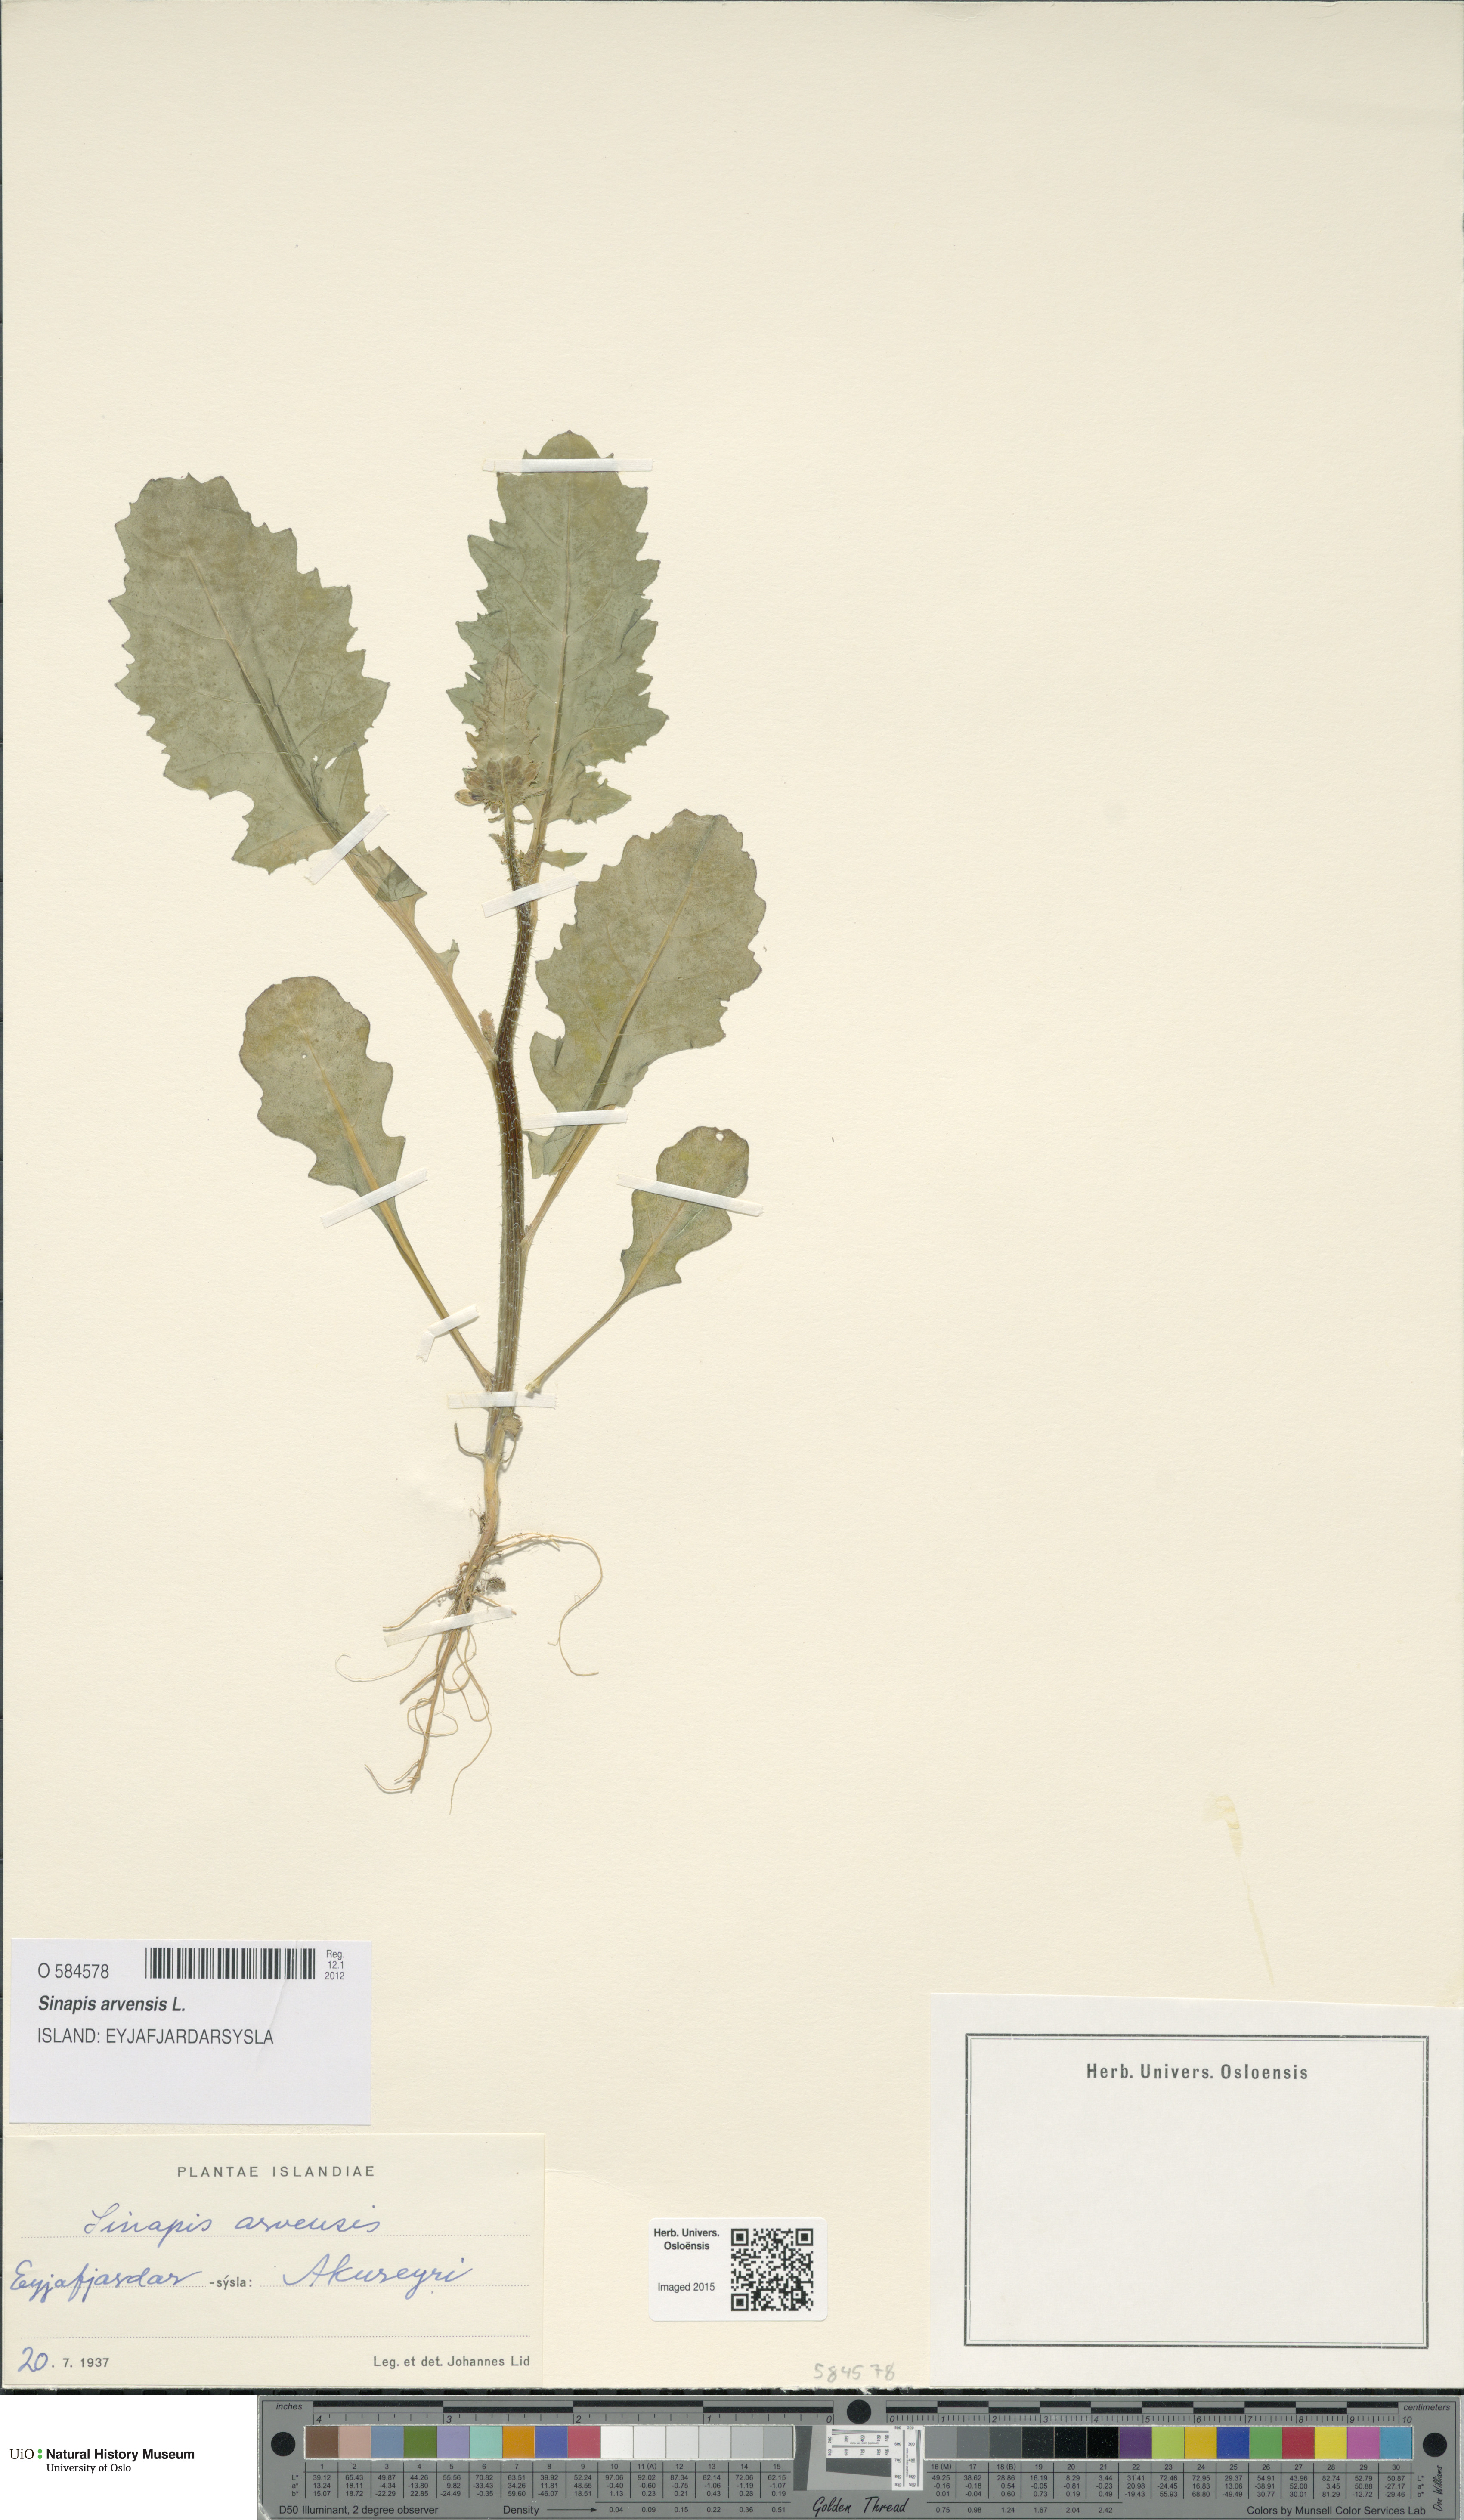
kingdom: Plantae
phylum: Tracheophyta
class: Magnoliopsida
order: Brassicales
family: Brassicaceae
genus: Sinapis
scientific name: Sinapis arvensis
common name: Charlock
